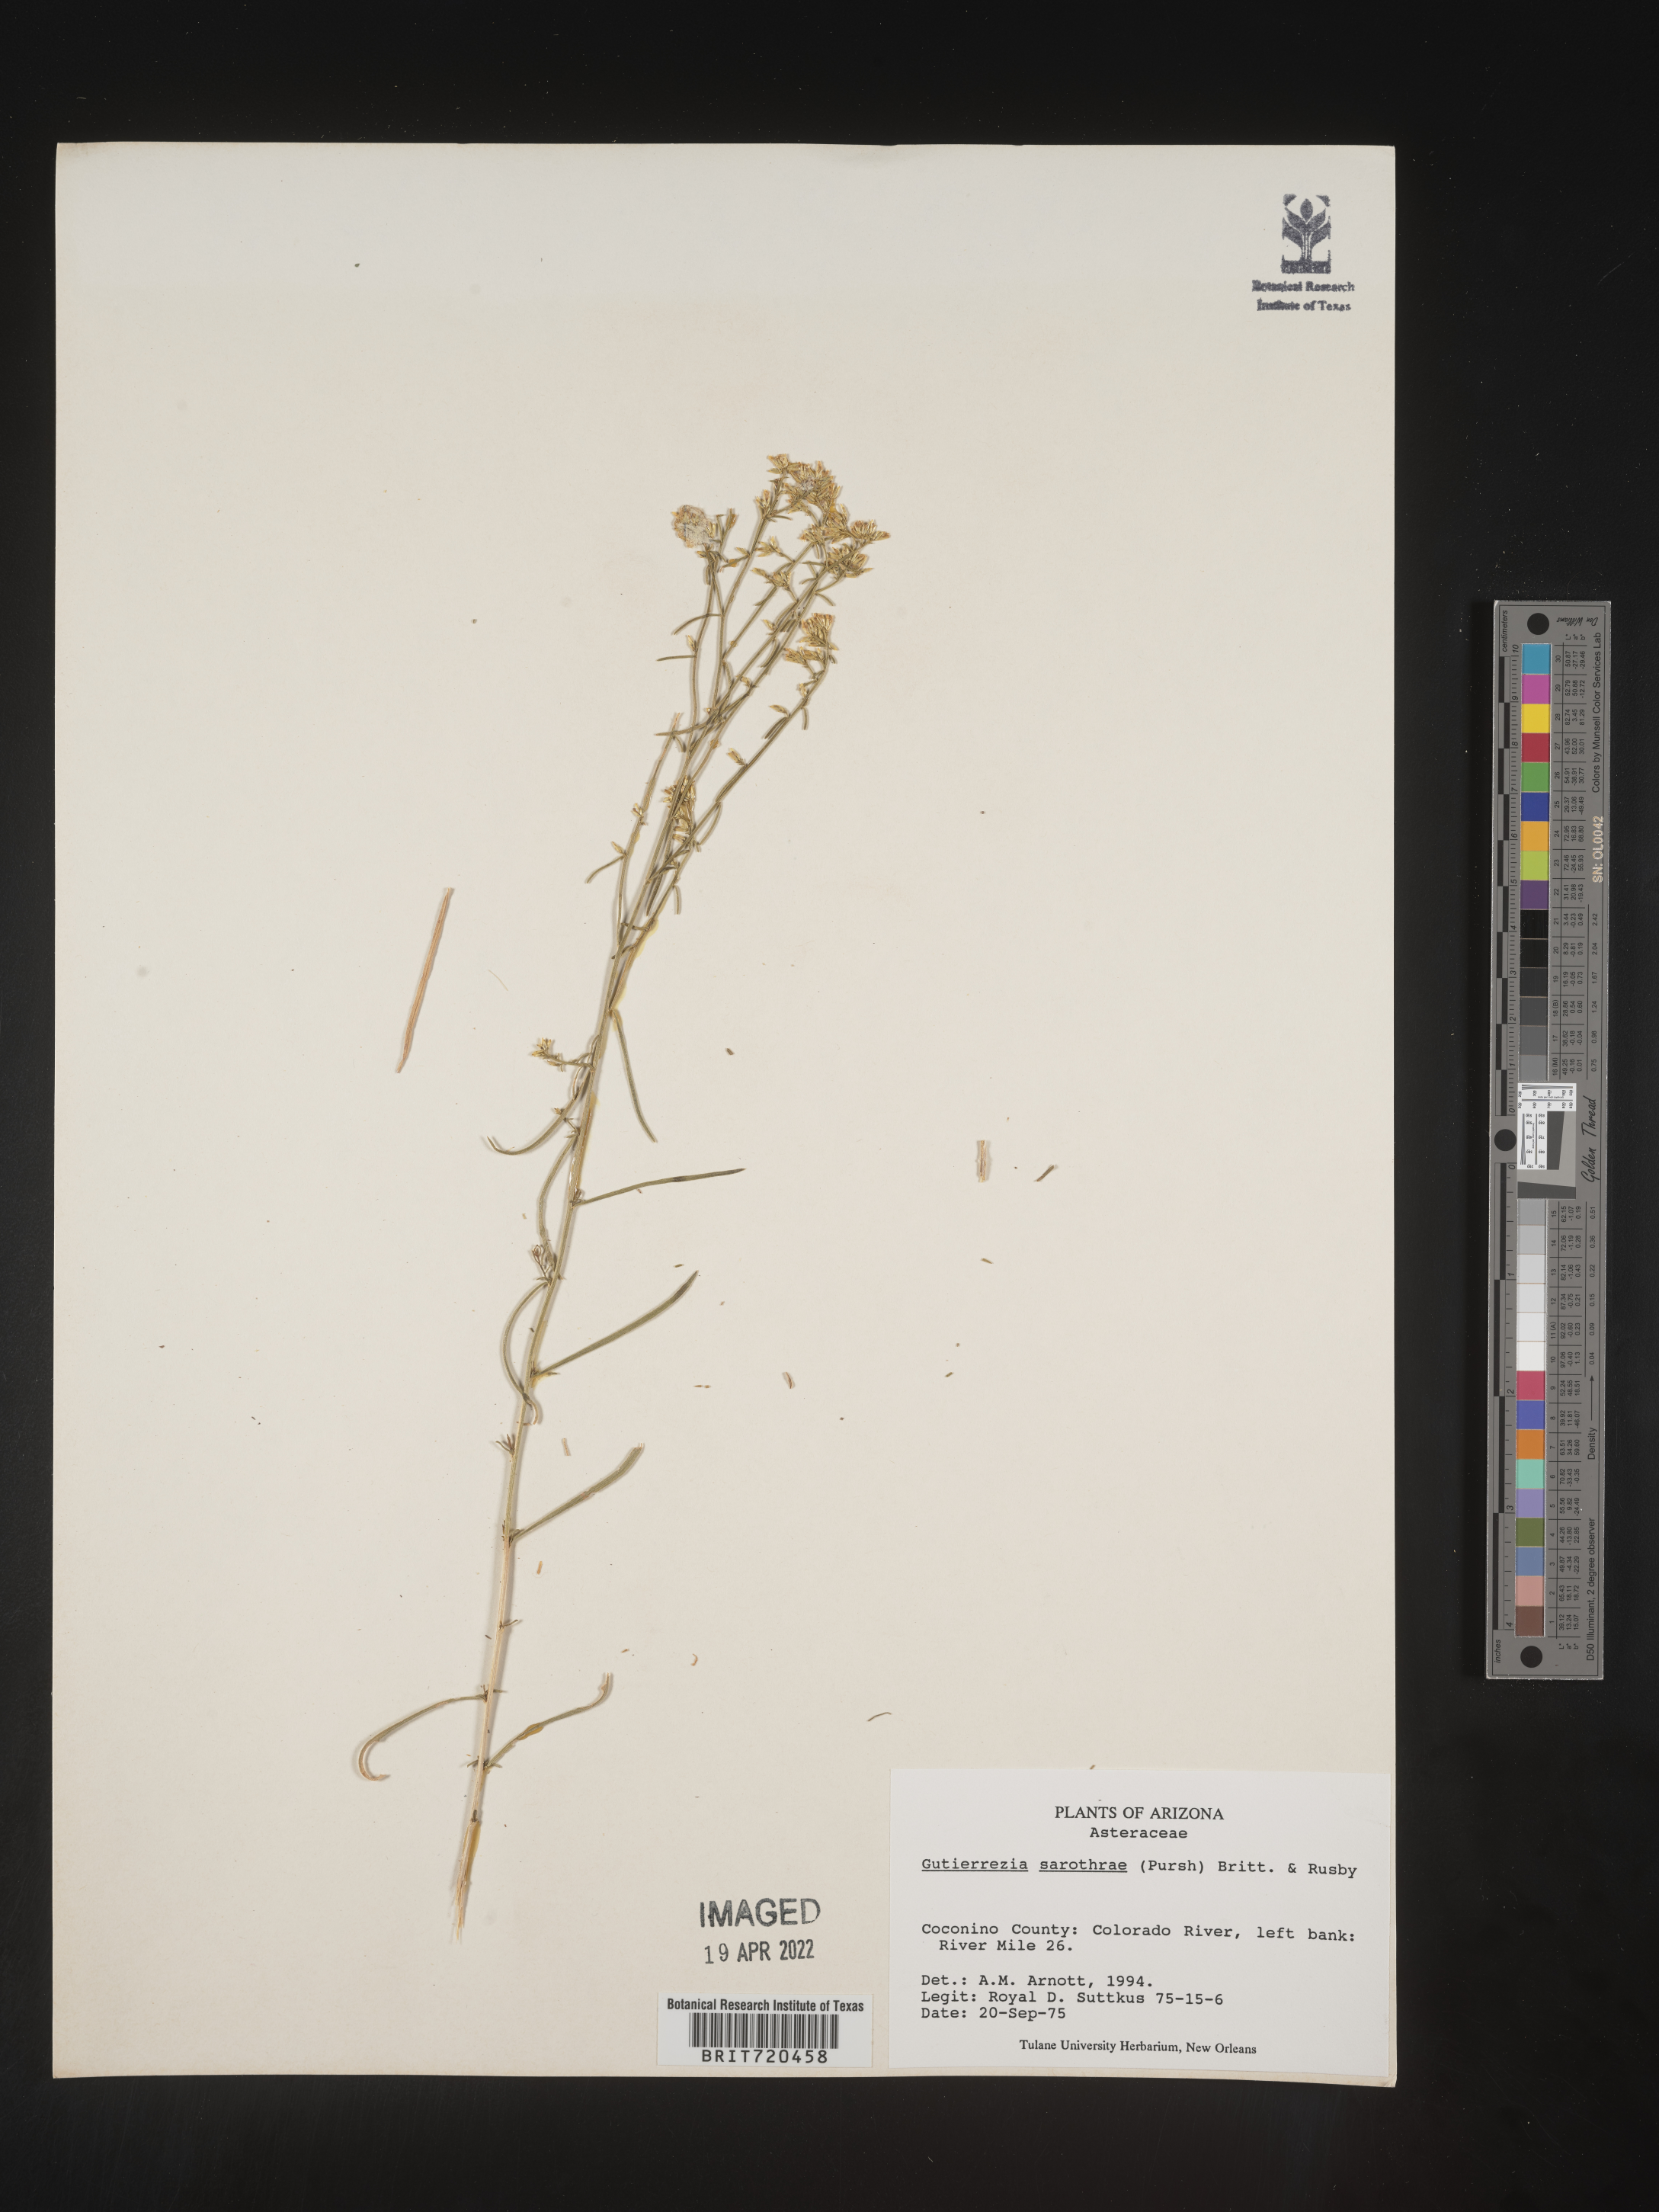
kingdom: Plantae
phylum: Tracheophyta
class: Magnoliopsida
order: Asterales
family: Asteraceae
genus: Gutierrezia
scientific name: Gutierrezia sarothrae
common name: Broom snakeweed
